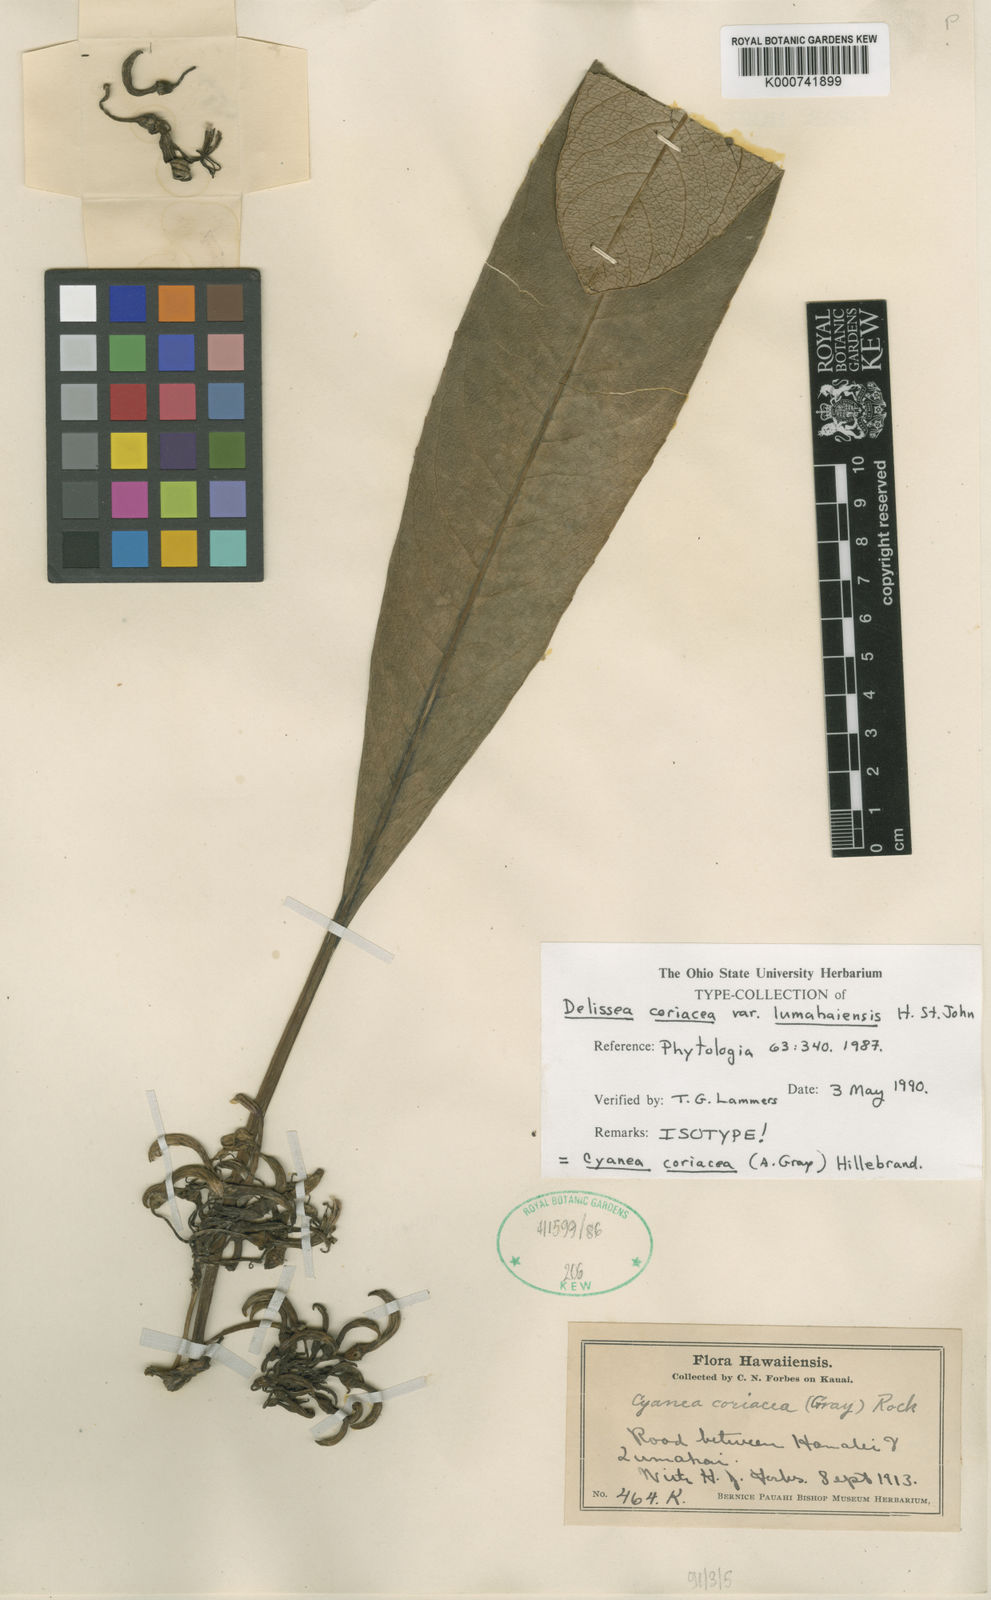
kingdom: Plantae
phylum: Tracheophyta
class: Magnoliopsida
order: Asterales
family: Campanulaceae
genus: Cyanea
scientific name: Cyanea coriacea
